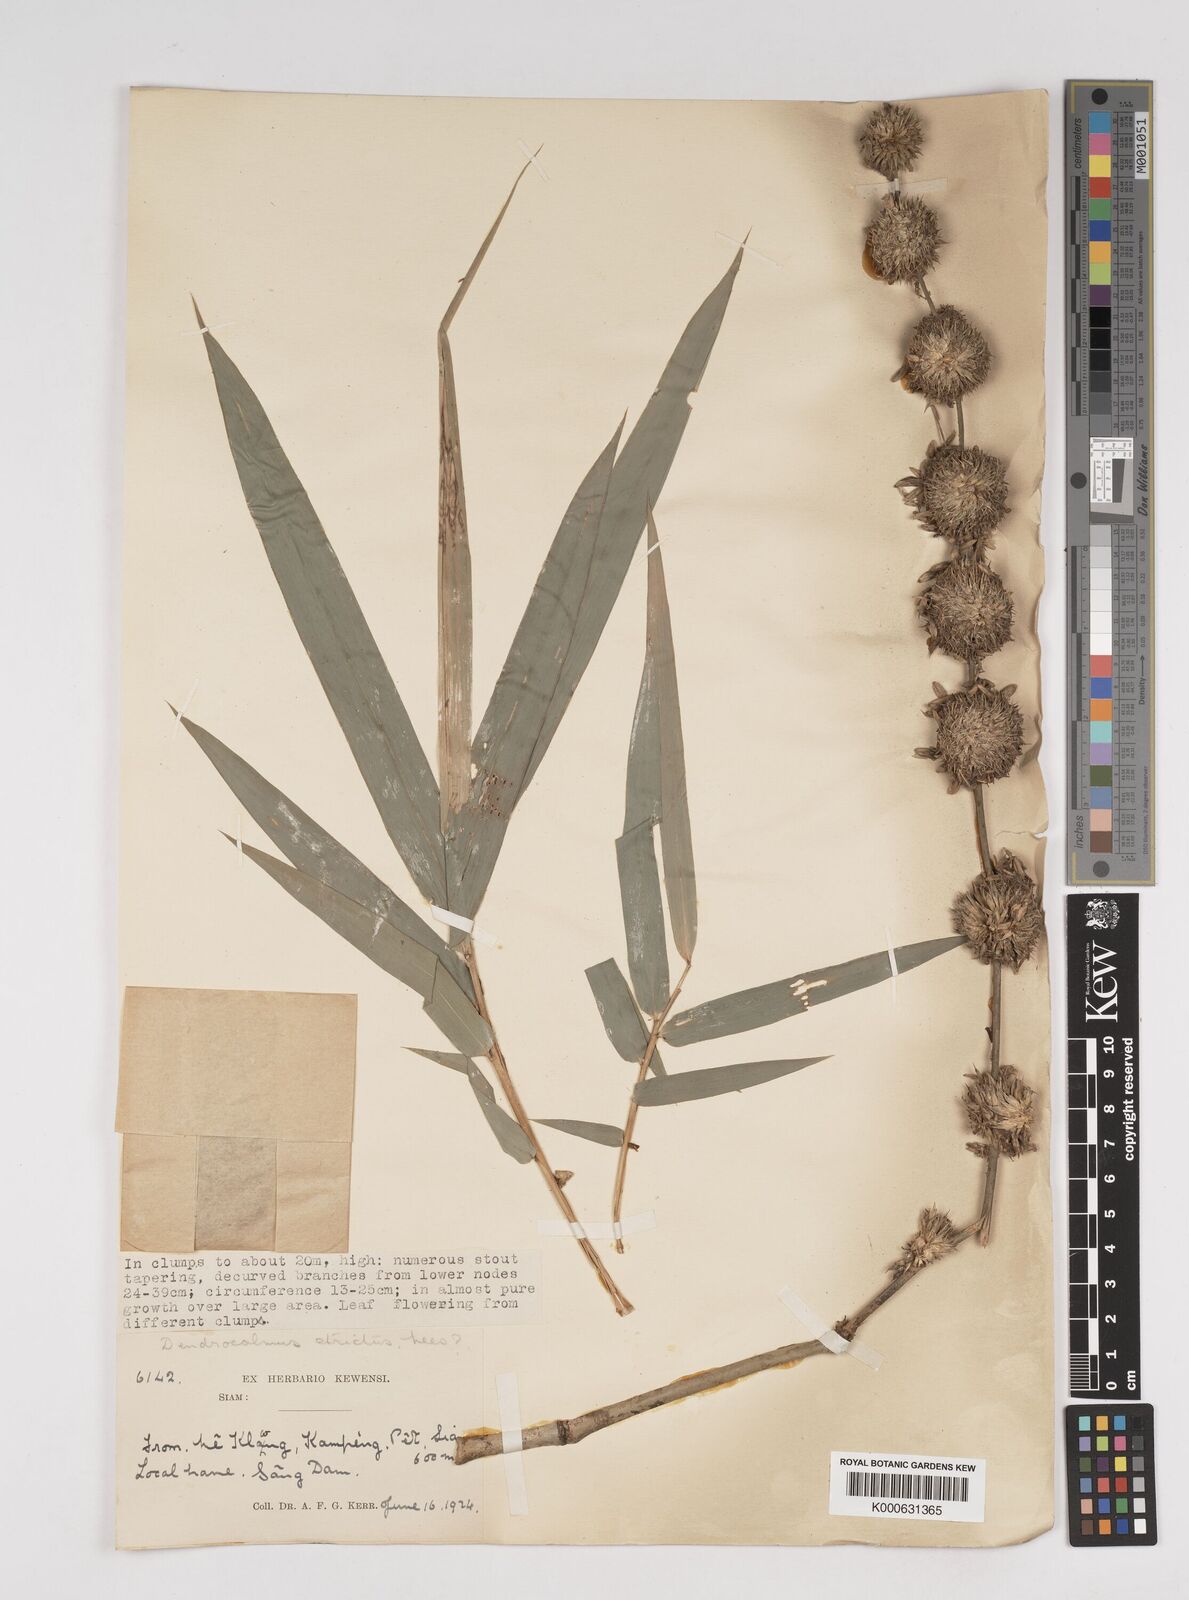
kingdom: Plantae
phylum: Tracheophyta
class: Liliopsida
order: Poales
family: Poaceae
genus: Dendrocalamus
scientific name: Dendrocalamus strictus
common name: Male bamboo
